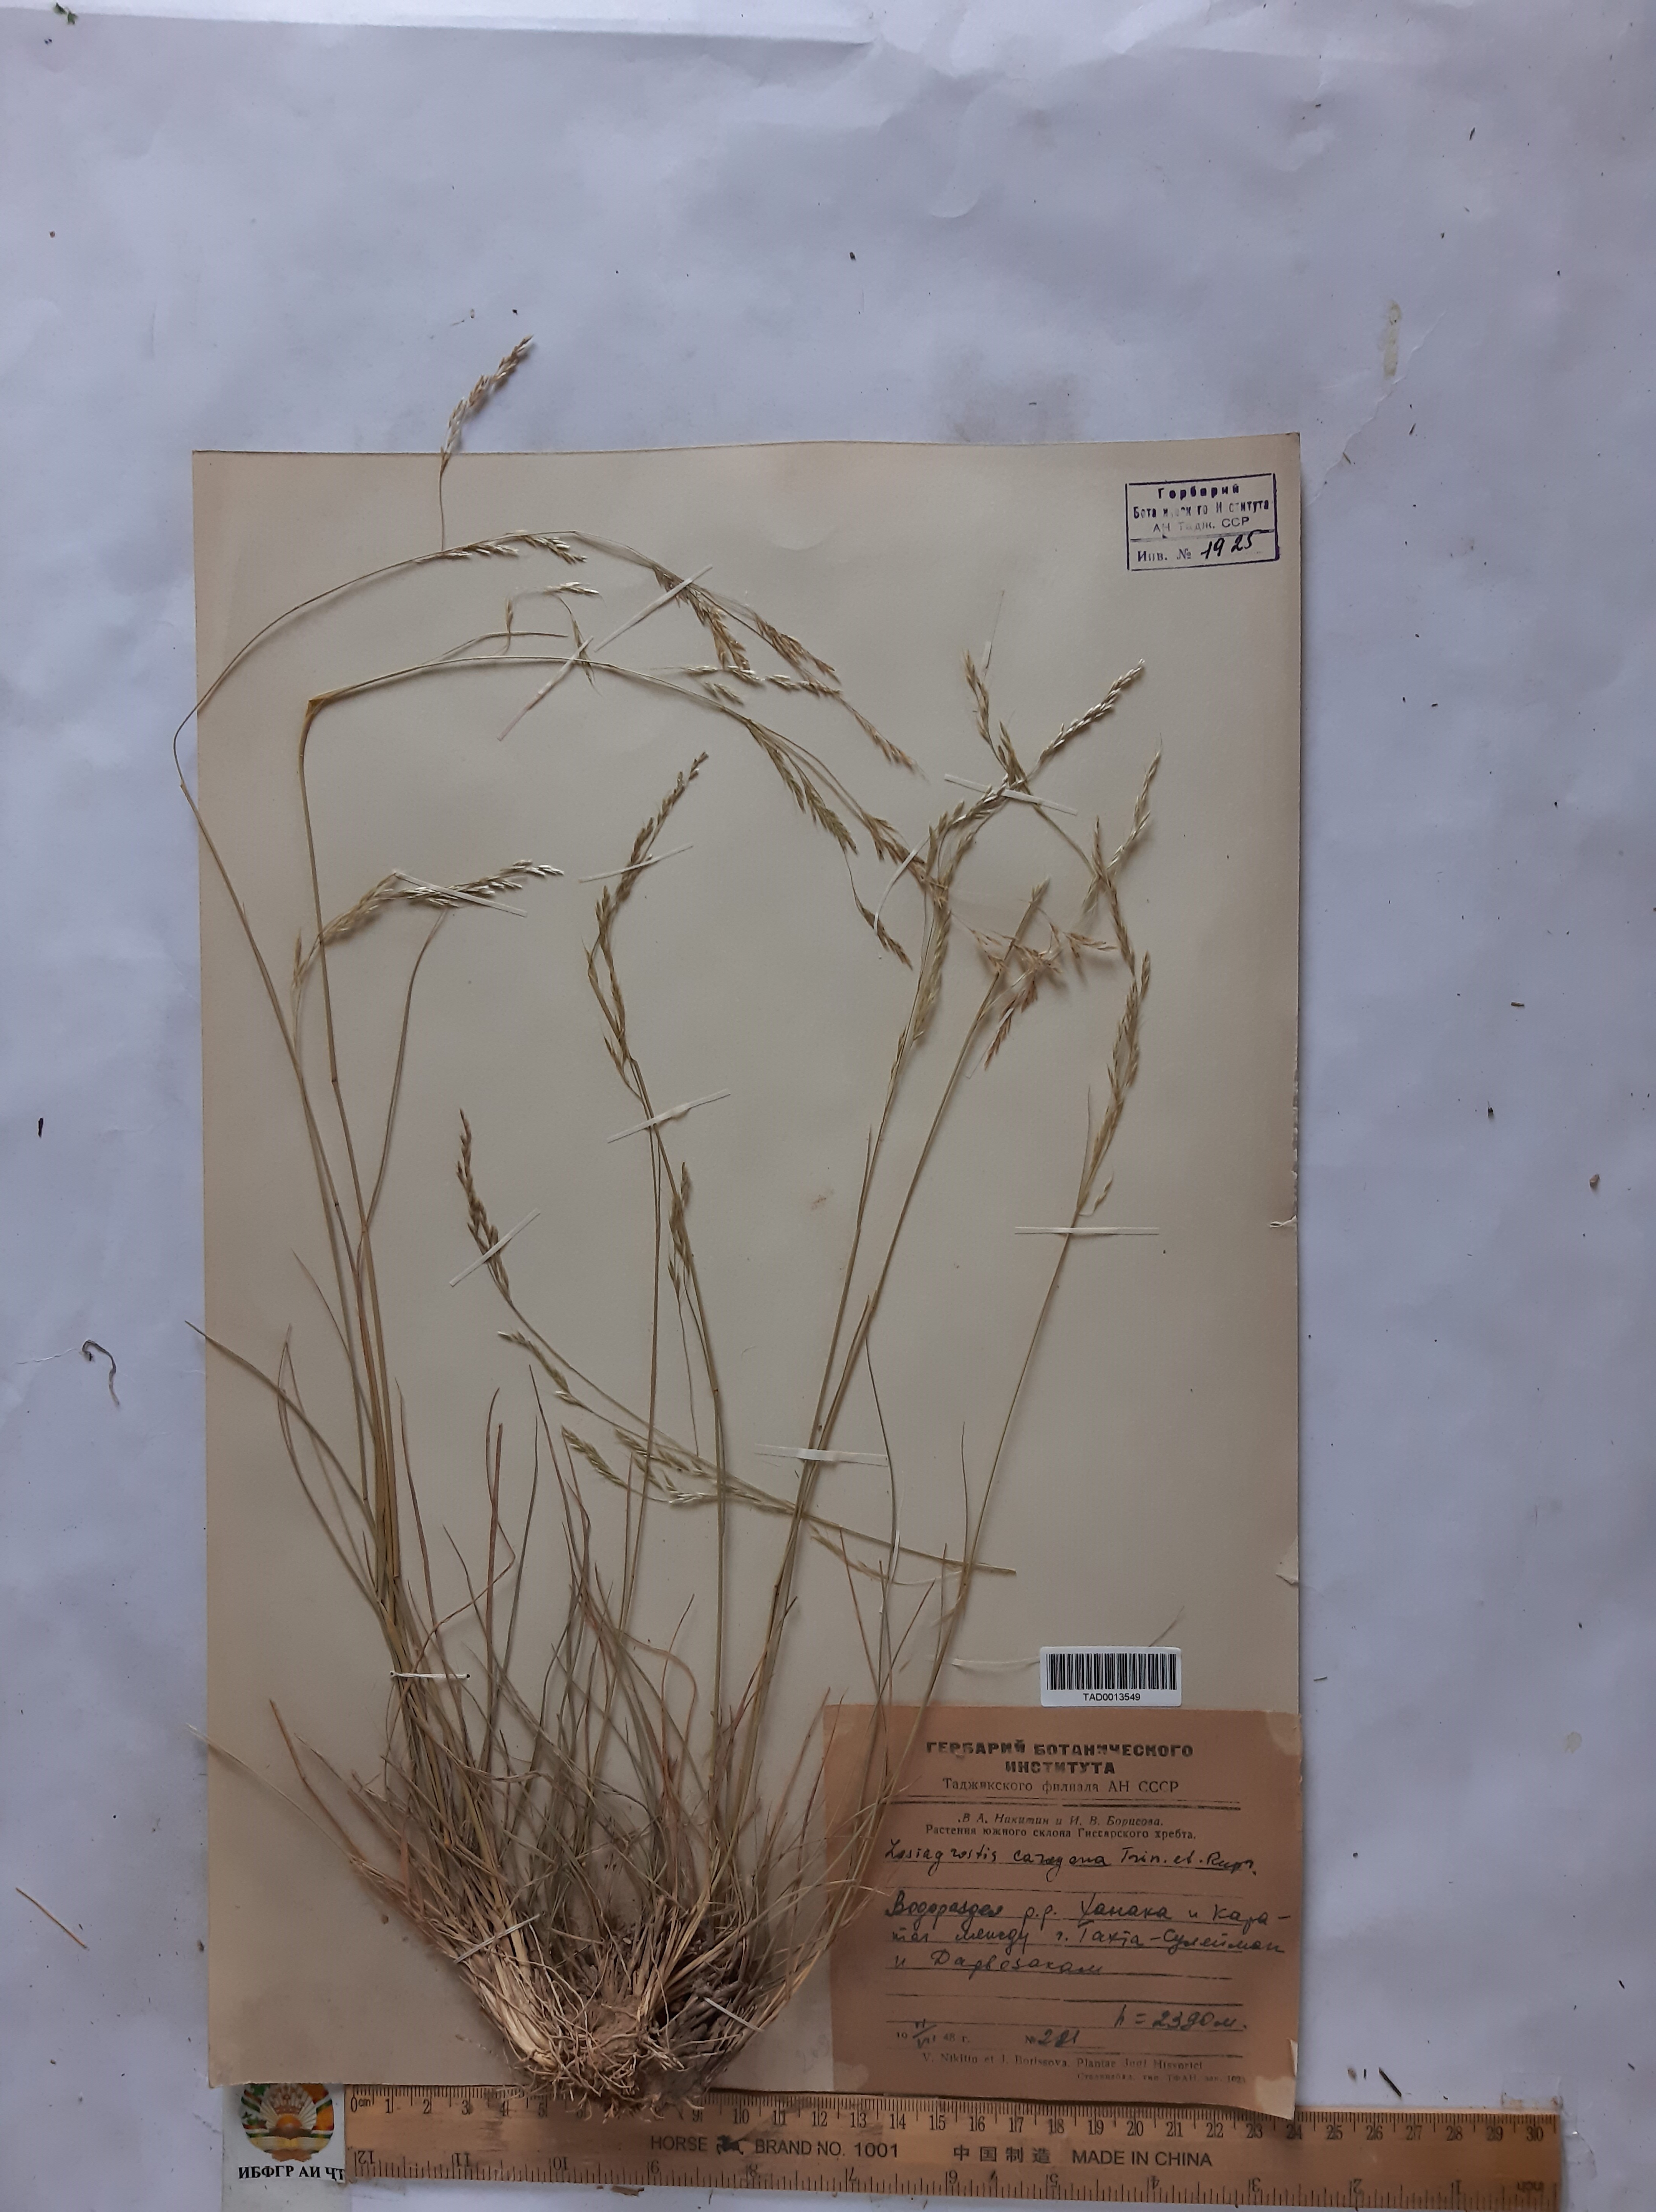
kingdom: Plantae
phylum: Tracheophyta
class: Liliopsida
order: Poales
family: Poaceae
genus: Stipa
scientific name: Stipa conferta
